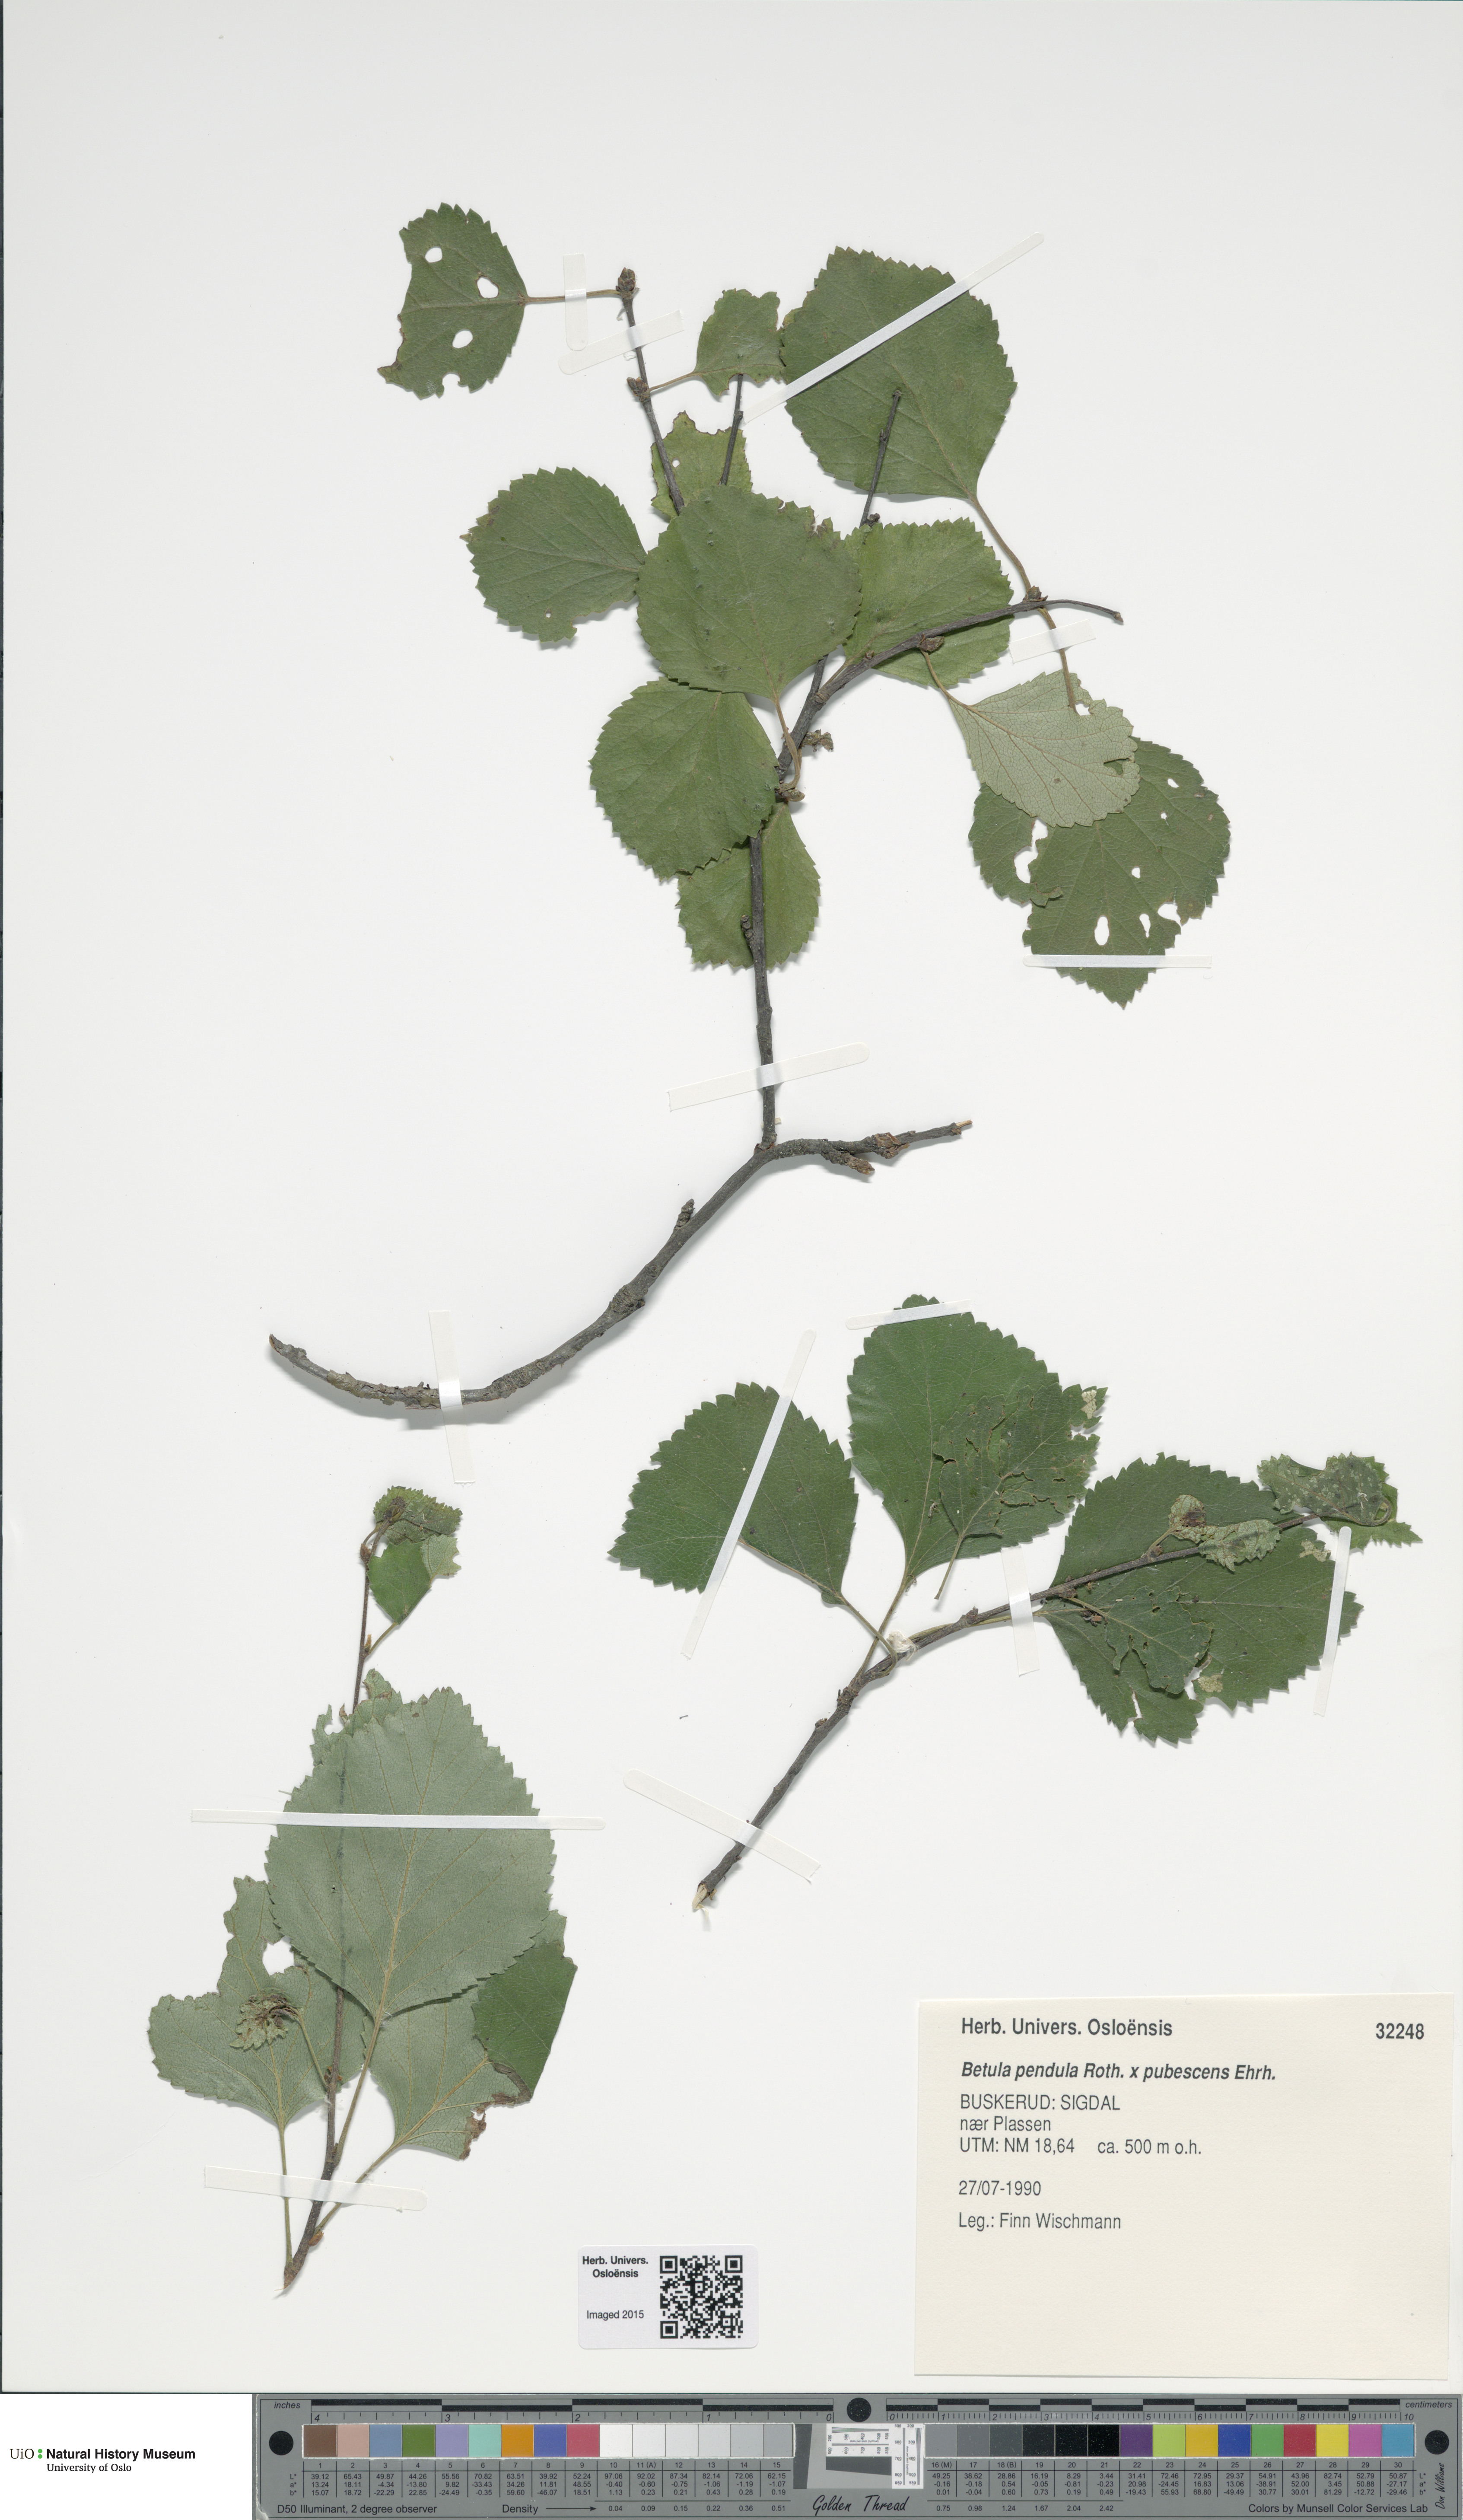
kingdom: Plantae
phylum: Tracheophyta
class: Magnoliopsida
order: Fagales
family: Betulaceae
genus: Betula
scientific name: Betula
